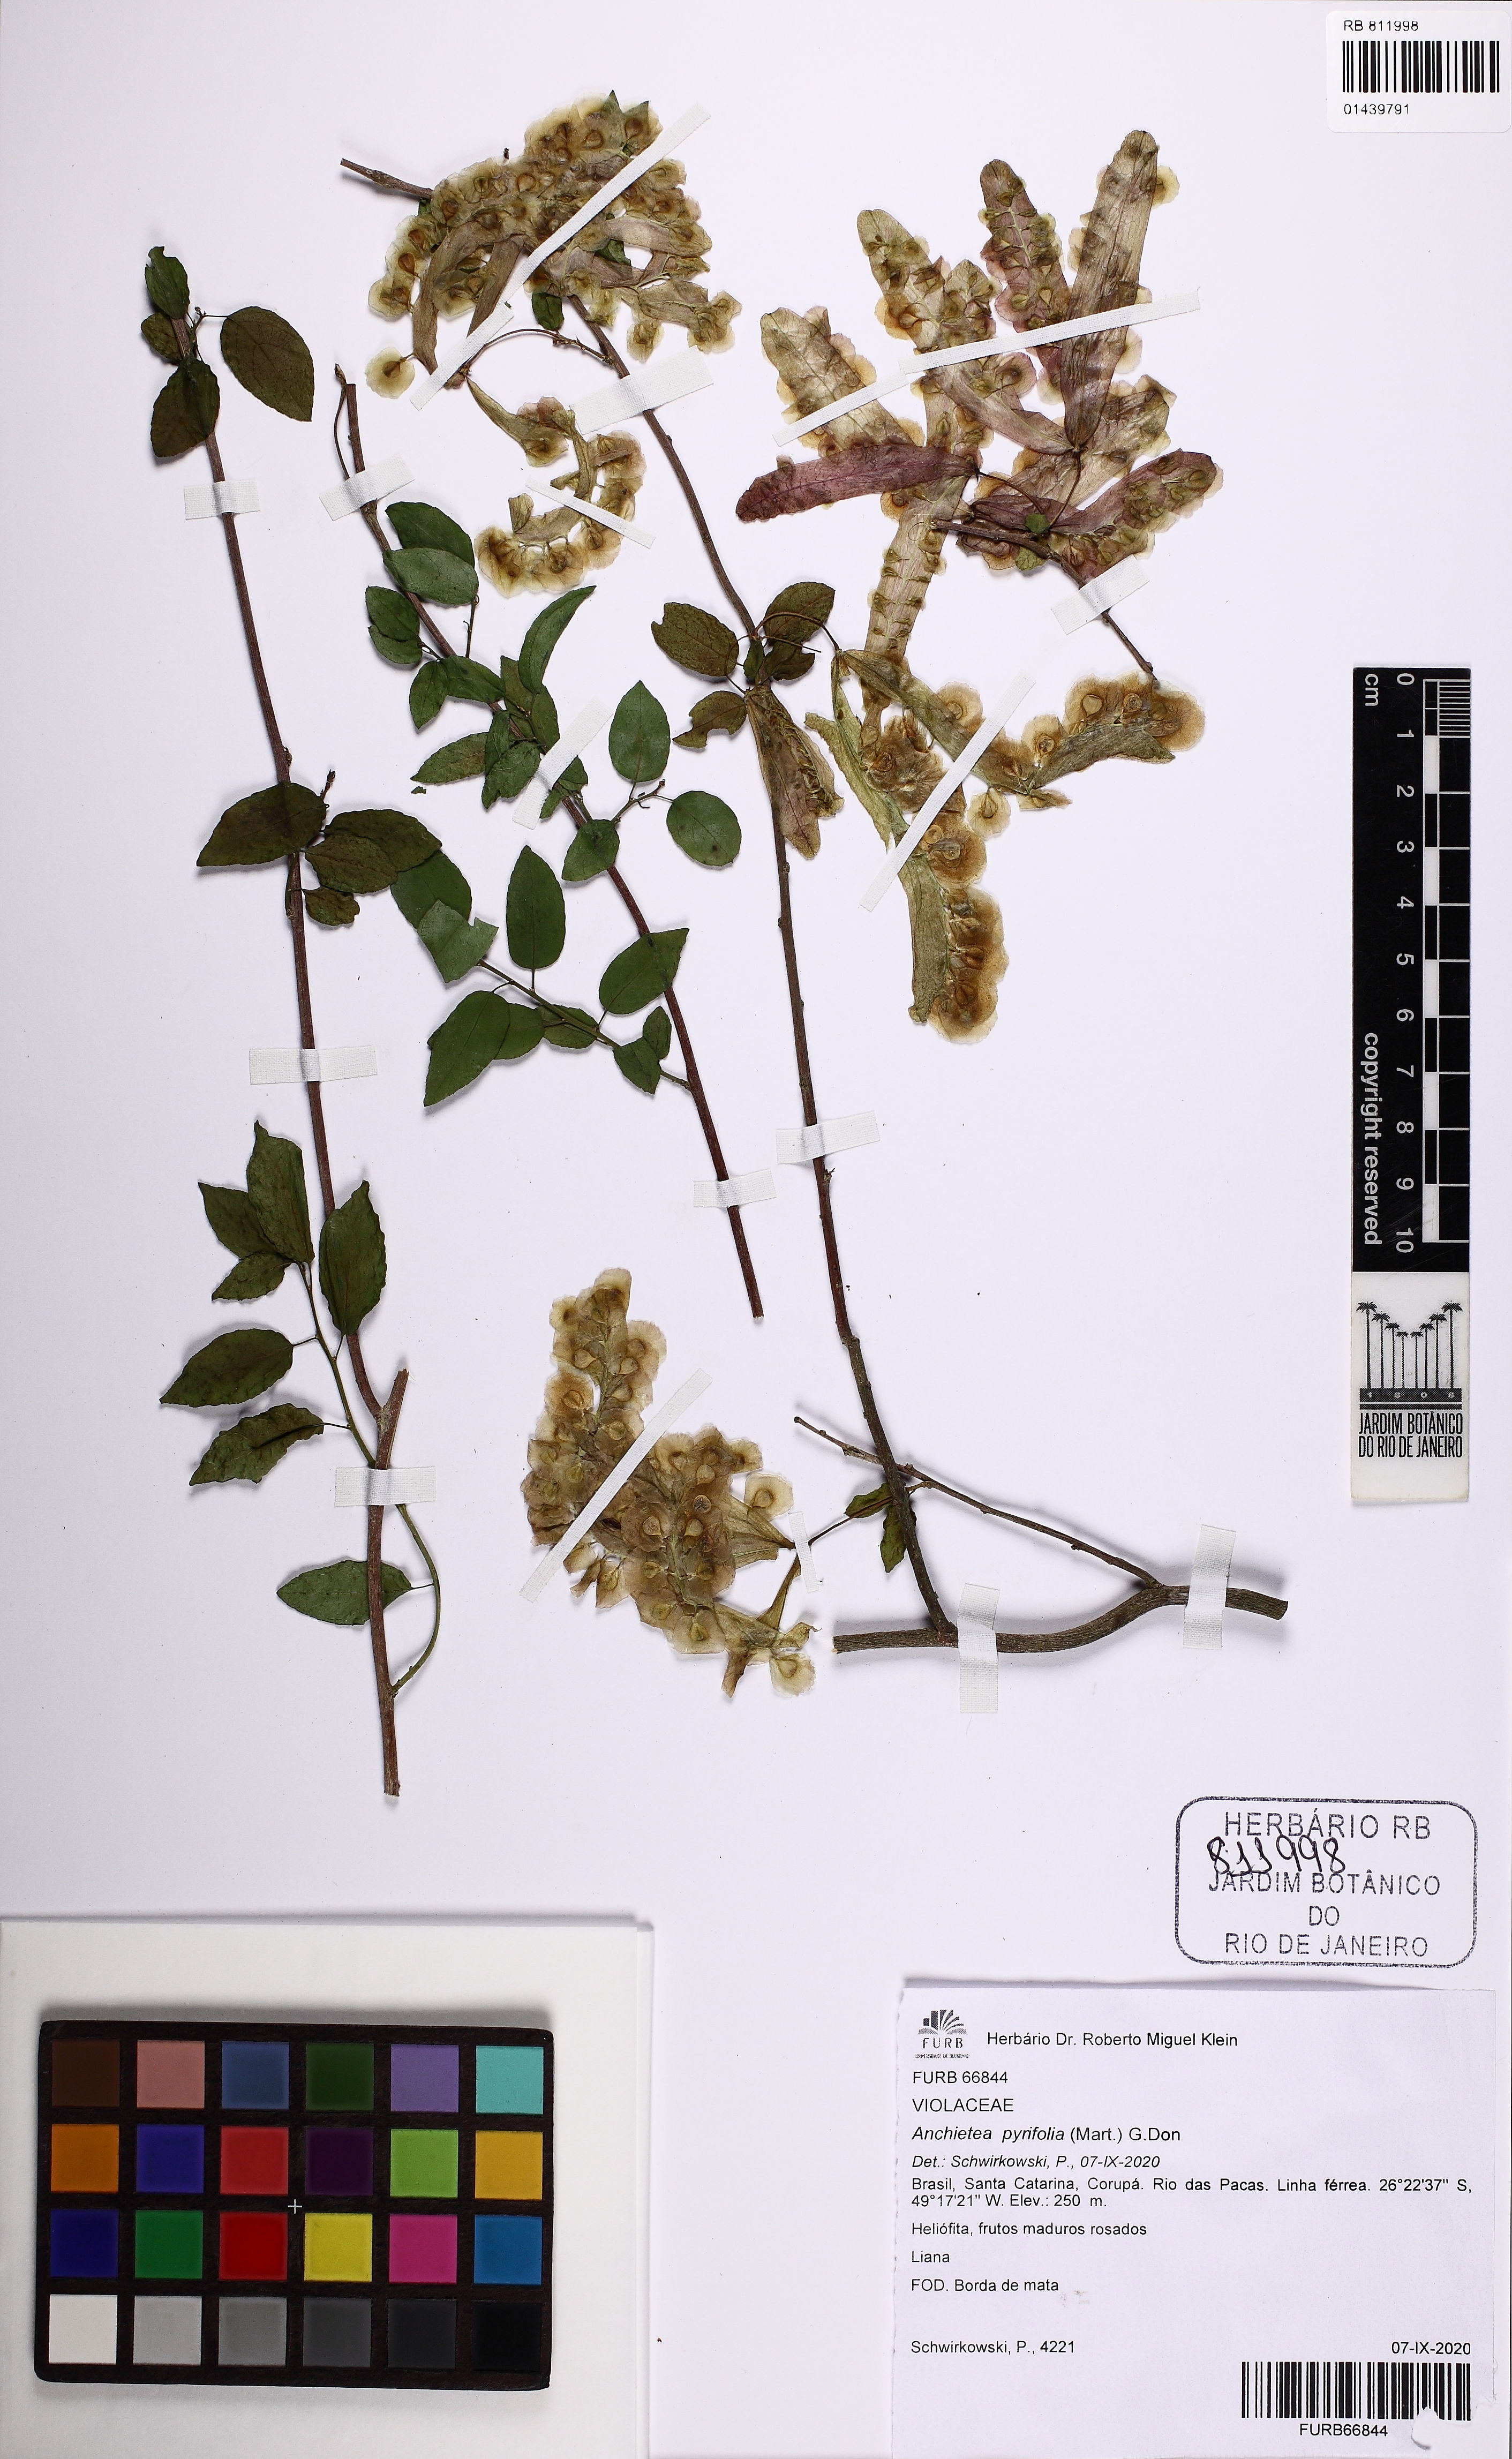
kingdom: Plantae
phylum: Tracheophyta
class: Magnoliopsida
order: Malpighiales
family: Violaceae
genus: Anchietea
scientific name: Anchietea pyrifolia
